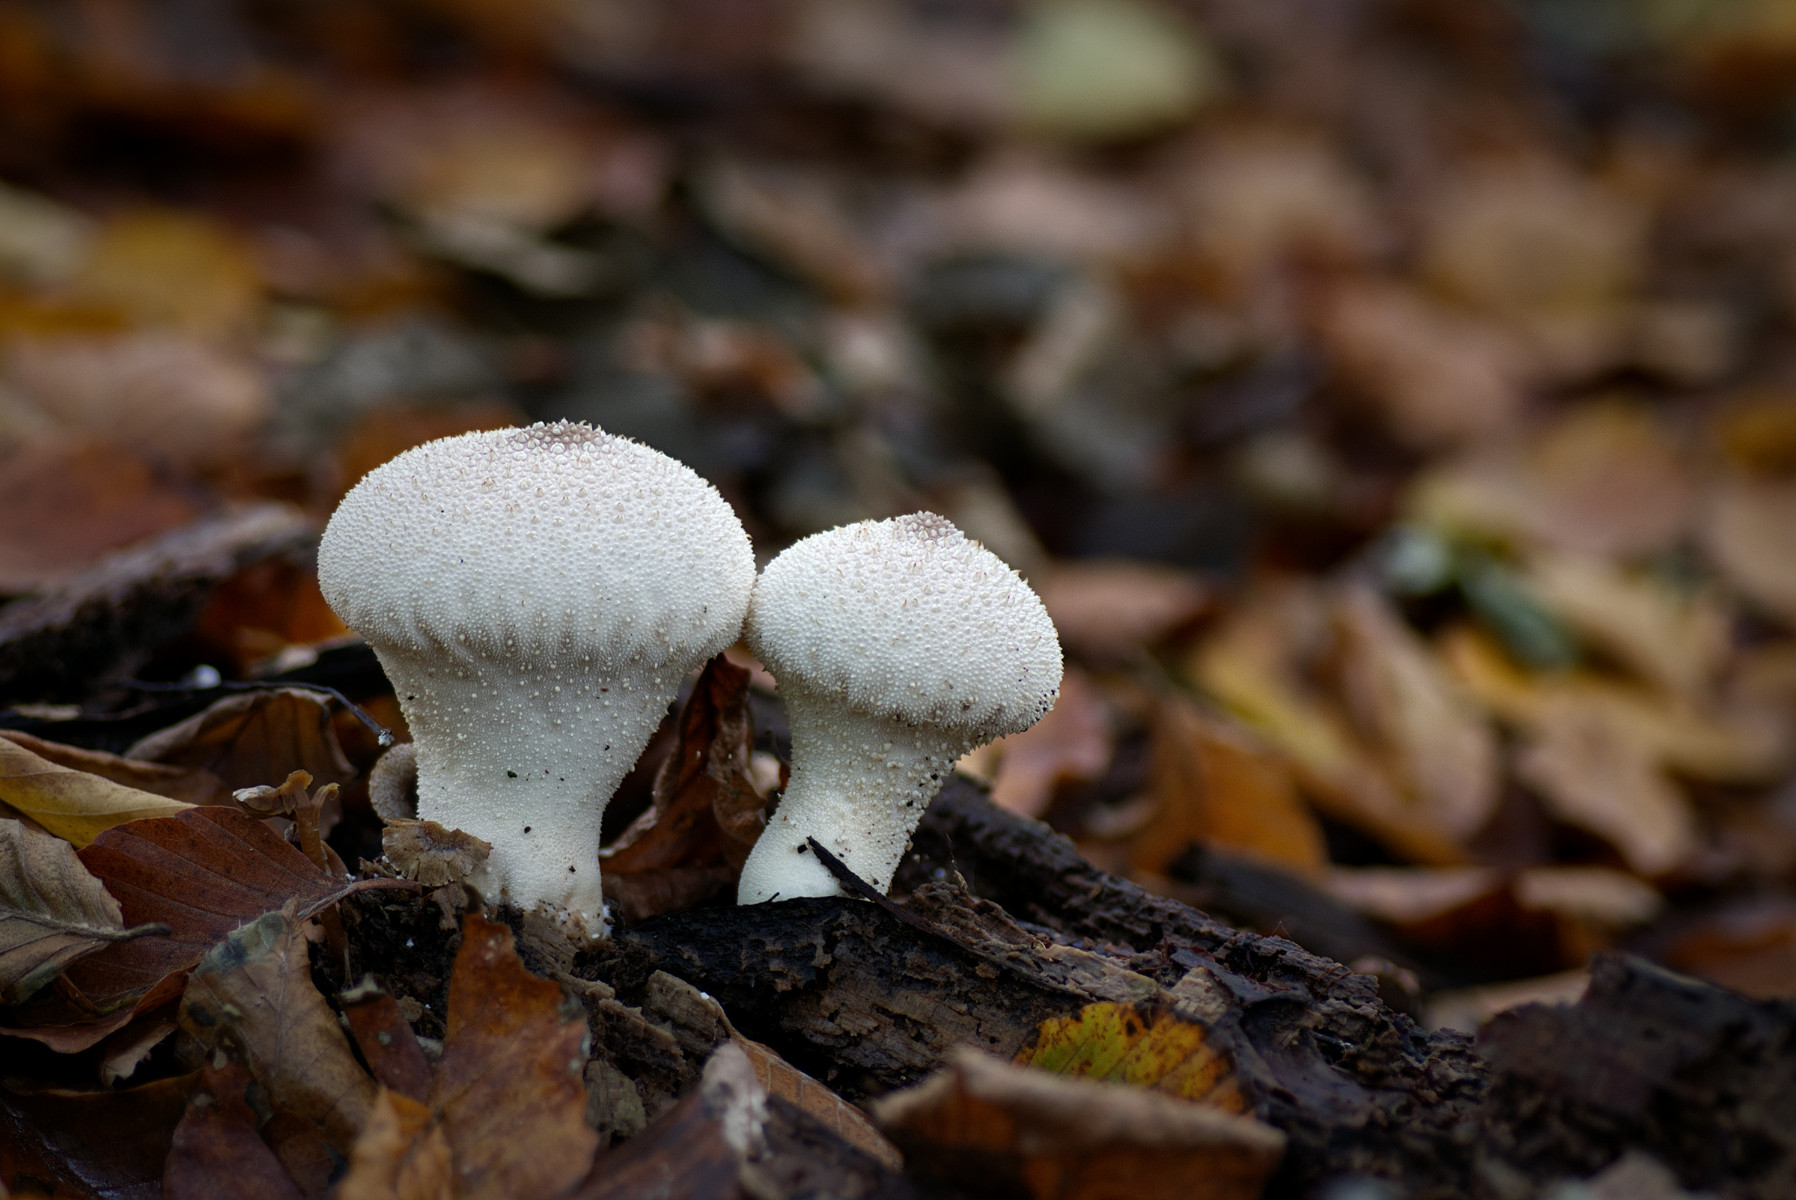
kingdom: Fungi
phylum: Basidiomycota
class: Agaricomycetes
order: Agaricales
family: Lycoperdaceae
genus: Lycoperdon
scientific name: Lycoperdon perlatum
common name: krystal-støvbold
